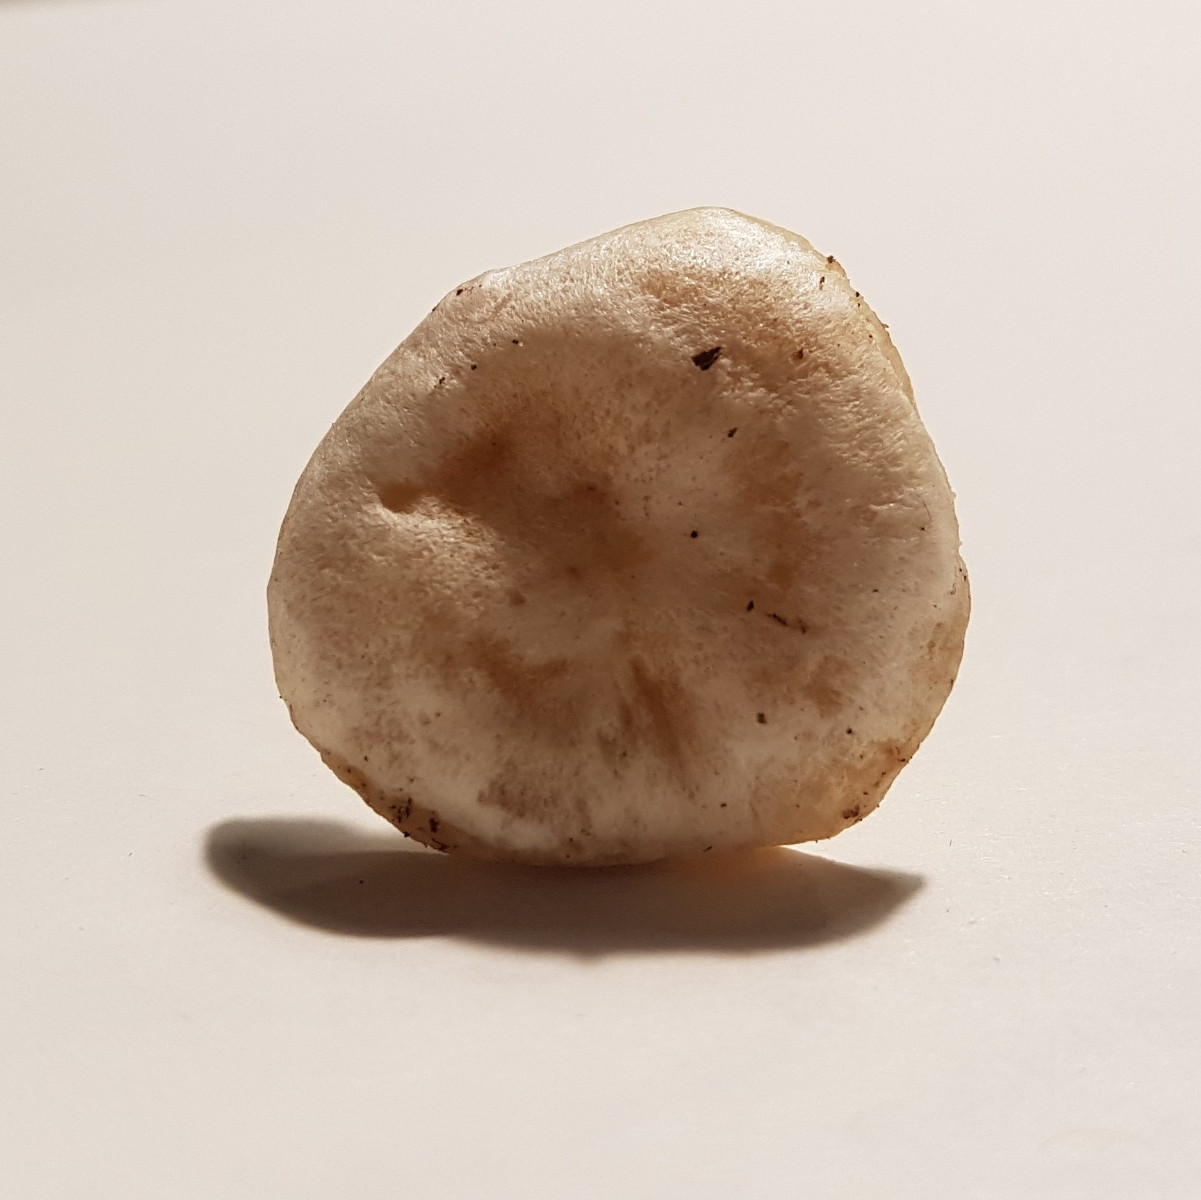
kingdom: Fungi
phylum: Basidiomycota
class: Agaricomycetes
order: Agaricales
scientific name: Agaricales
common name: champignonordenen
